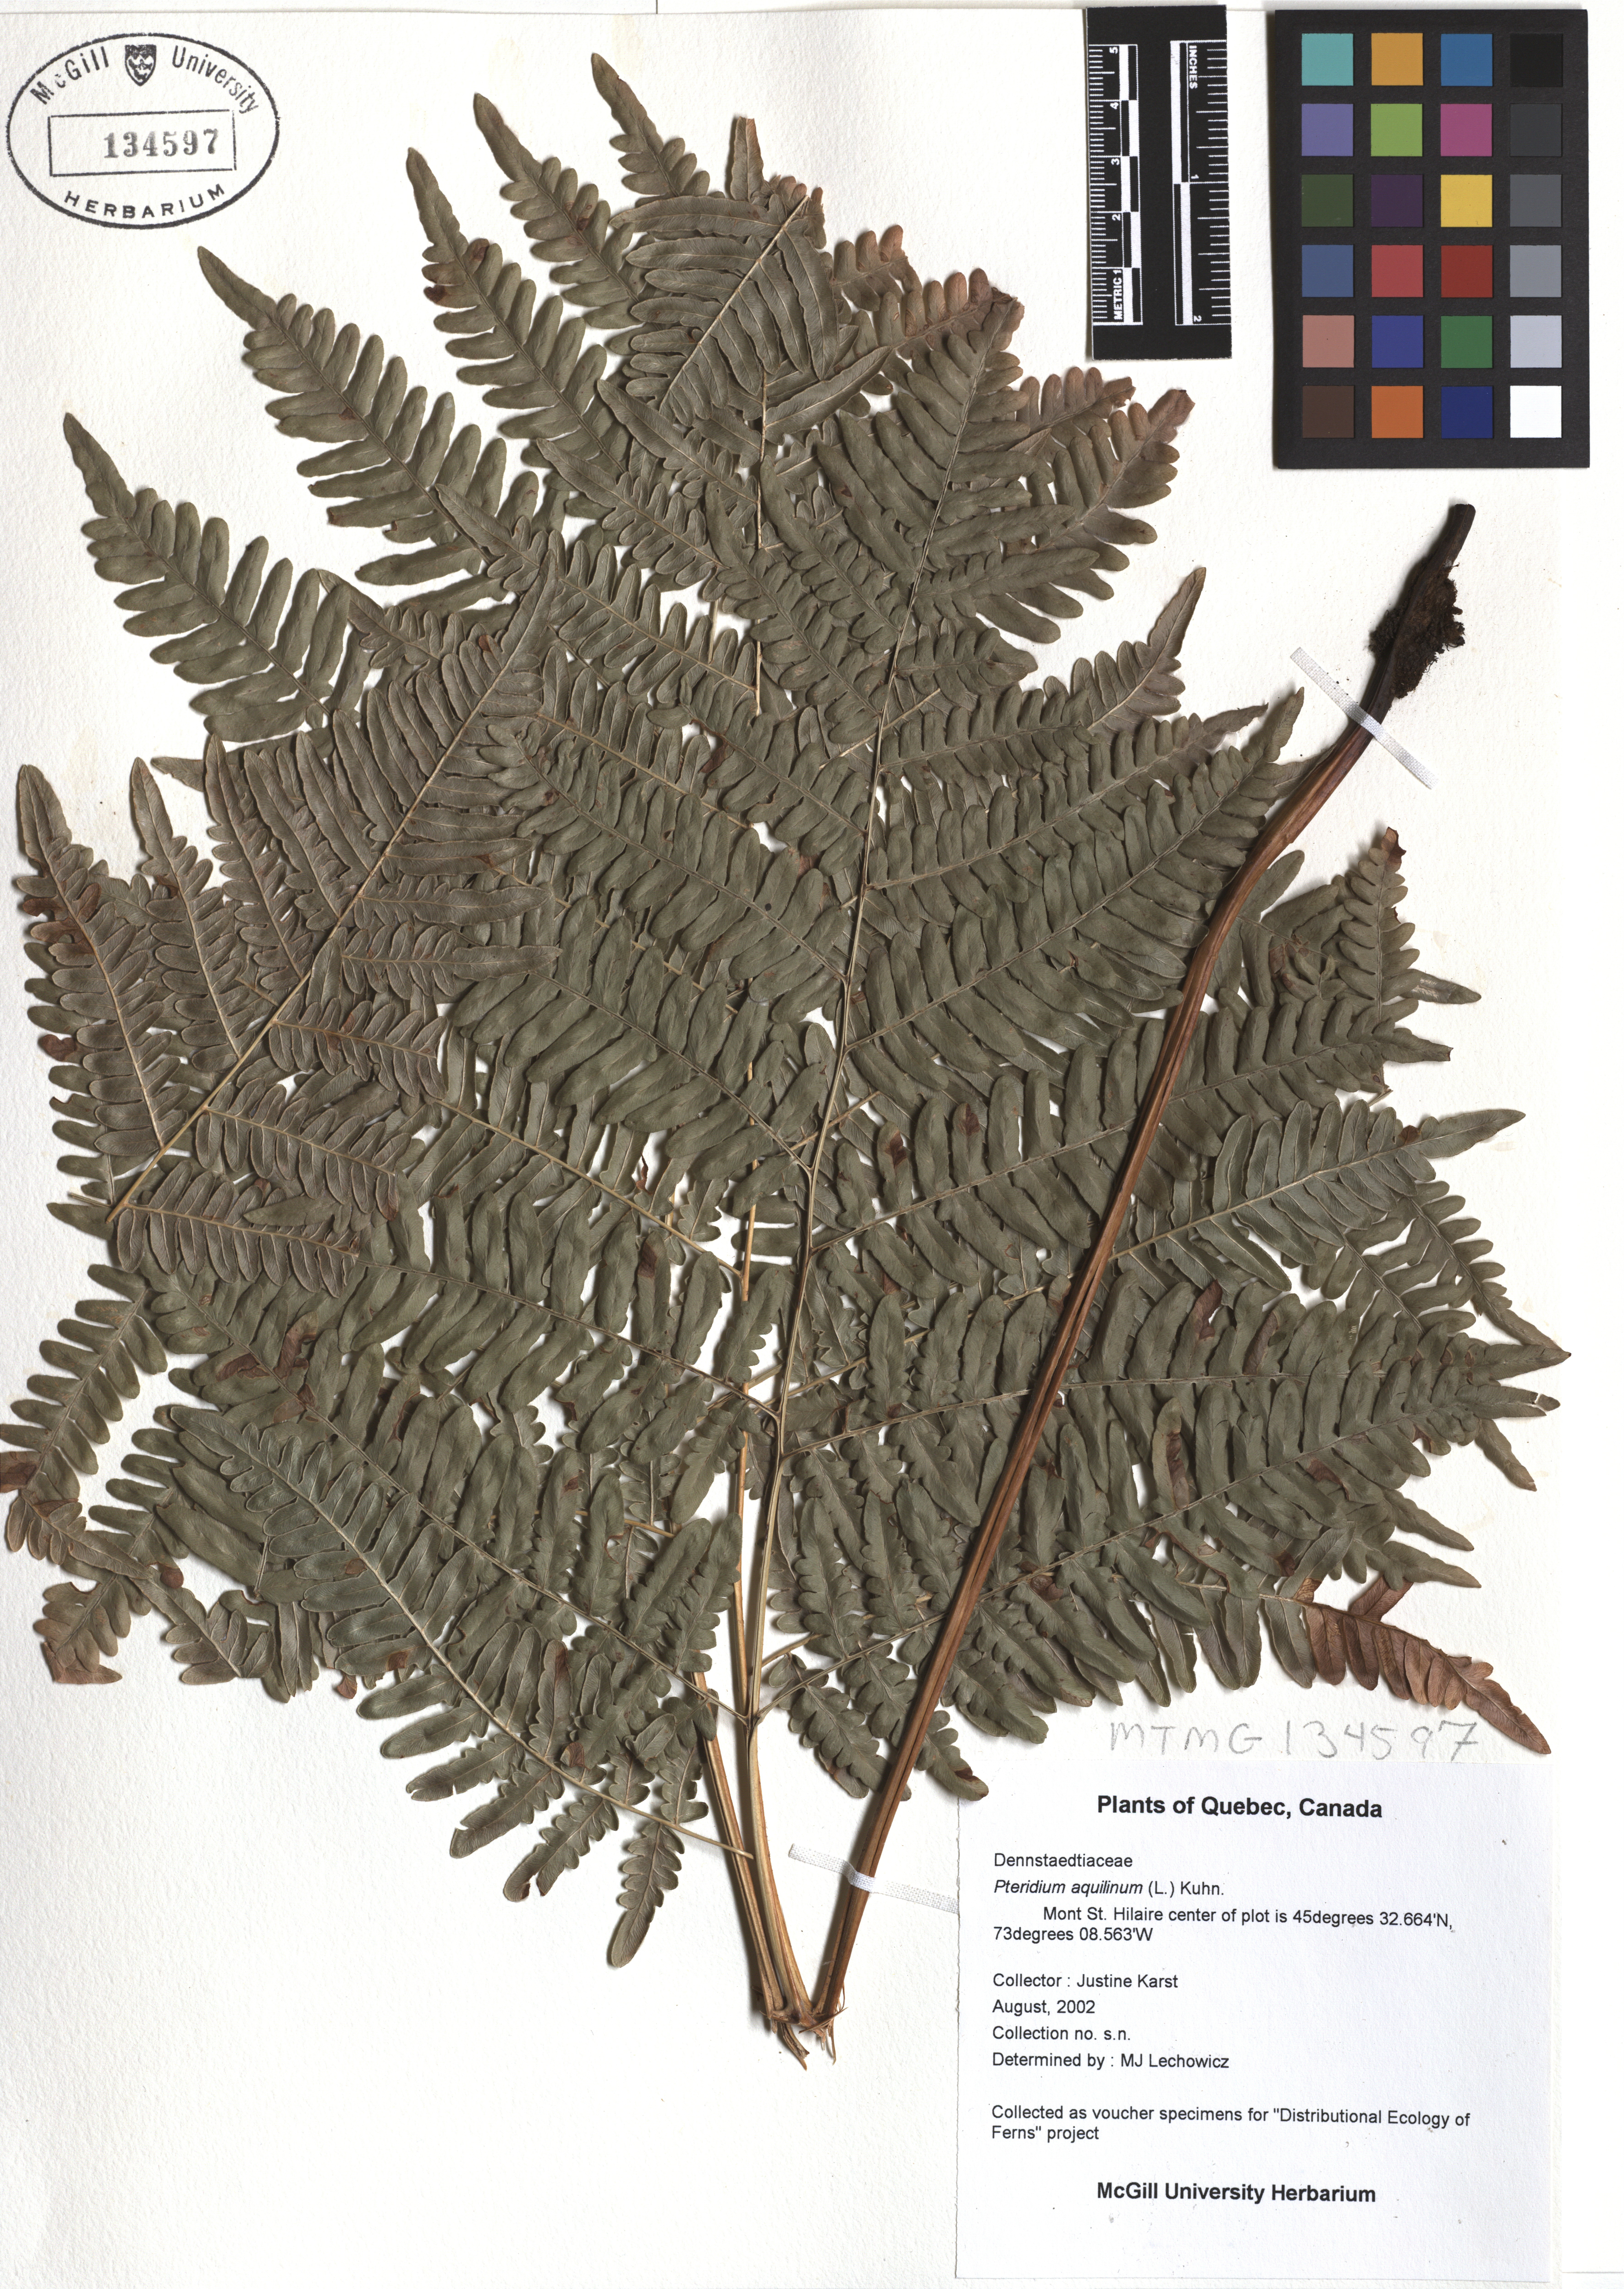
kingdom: Plantae
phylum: Tracheophyta
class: Polypodiopsida
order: Polypodiales
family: Dennstaedtiaceae
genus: Pteridium
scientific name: Pteridium aquilinum
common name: Bracken
